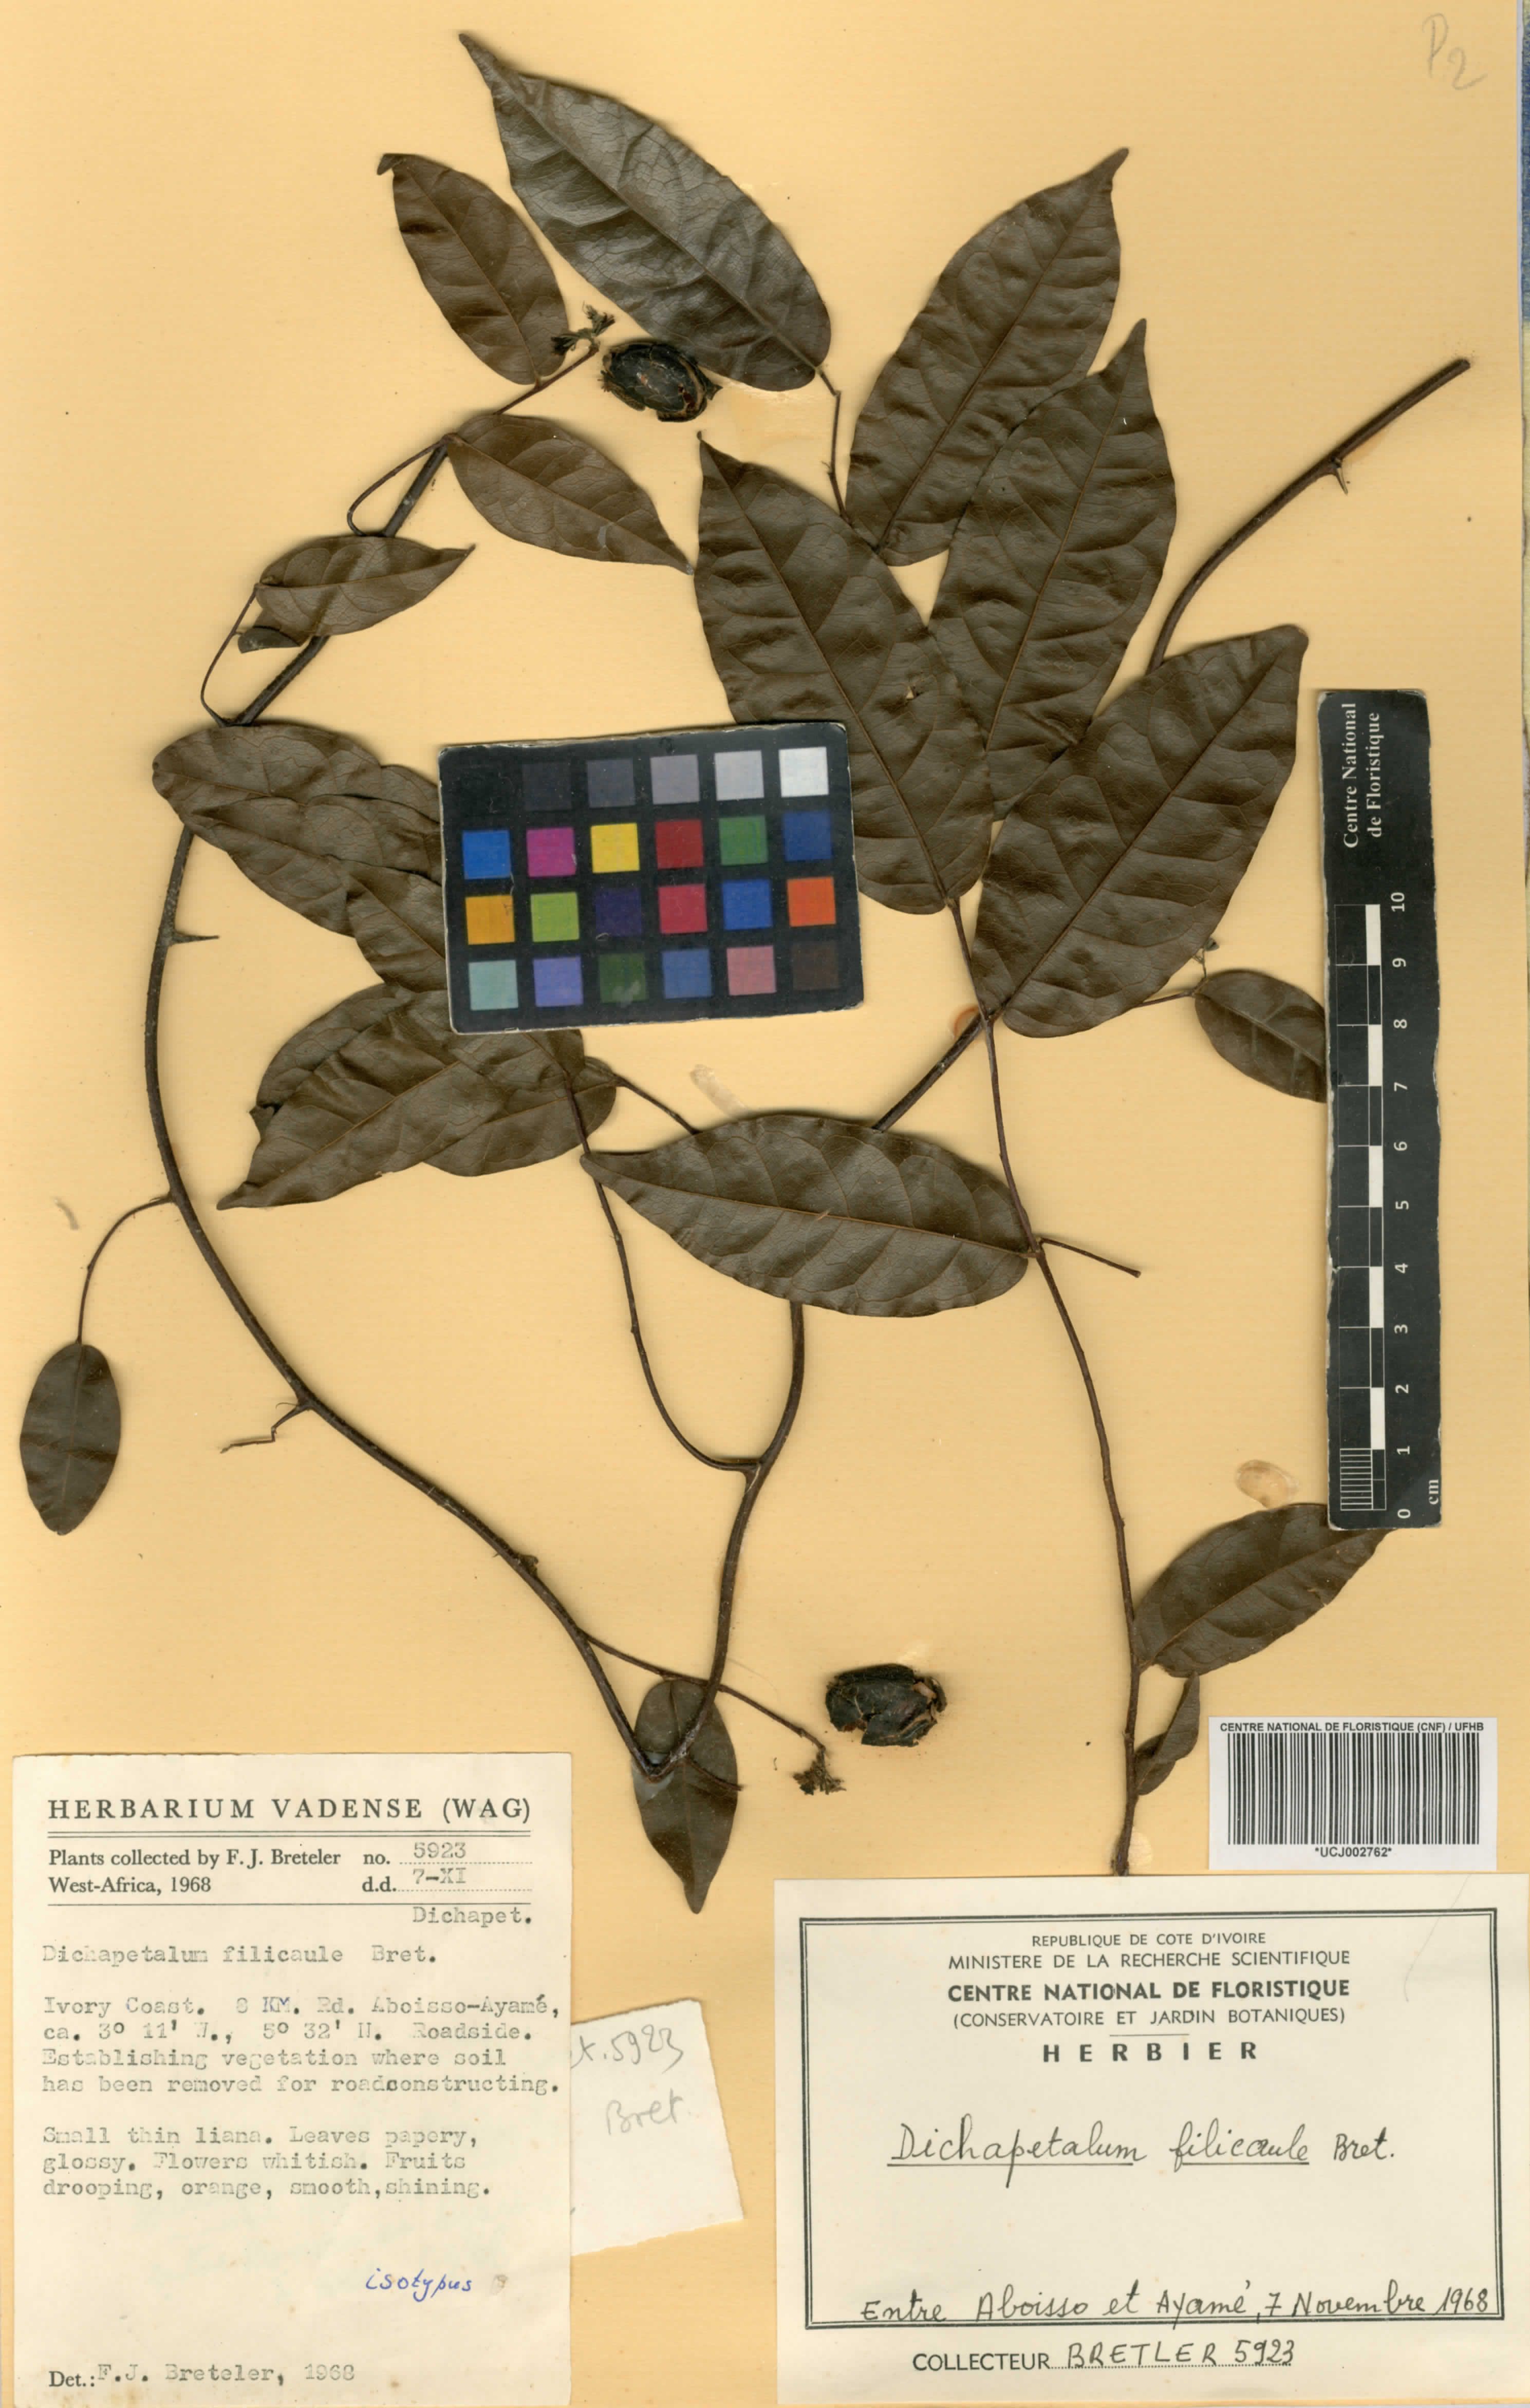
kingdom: Plantae
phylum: Tracheophyta
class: Magnoliopsida
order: Malpighiales
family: Dichapetalaceae
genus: Dichapetalum
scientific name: Dichapetalum filicaule
